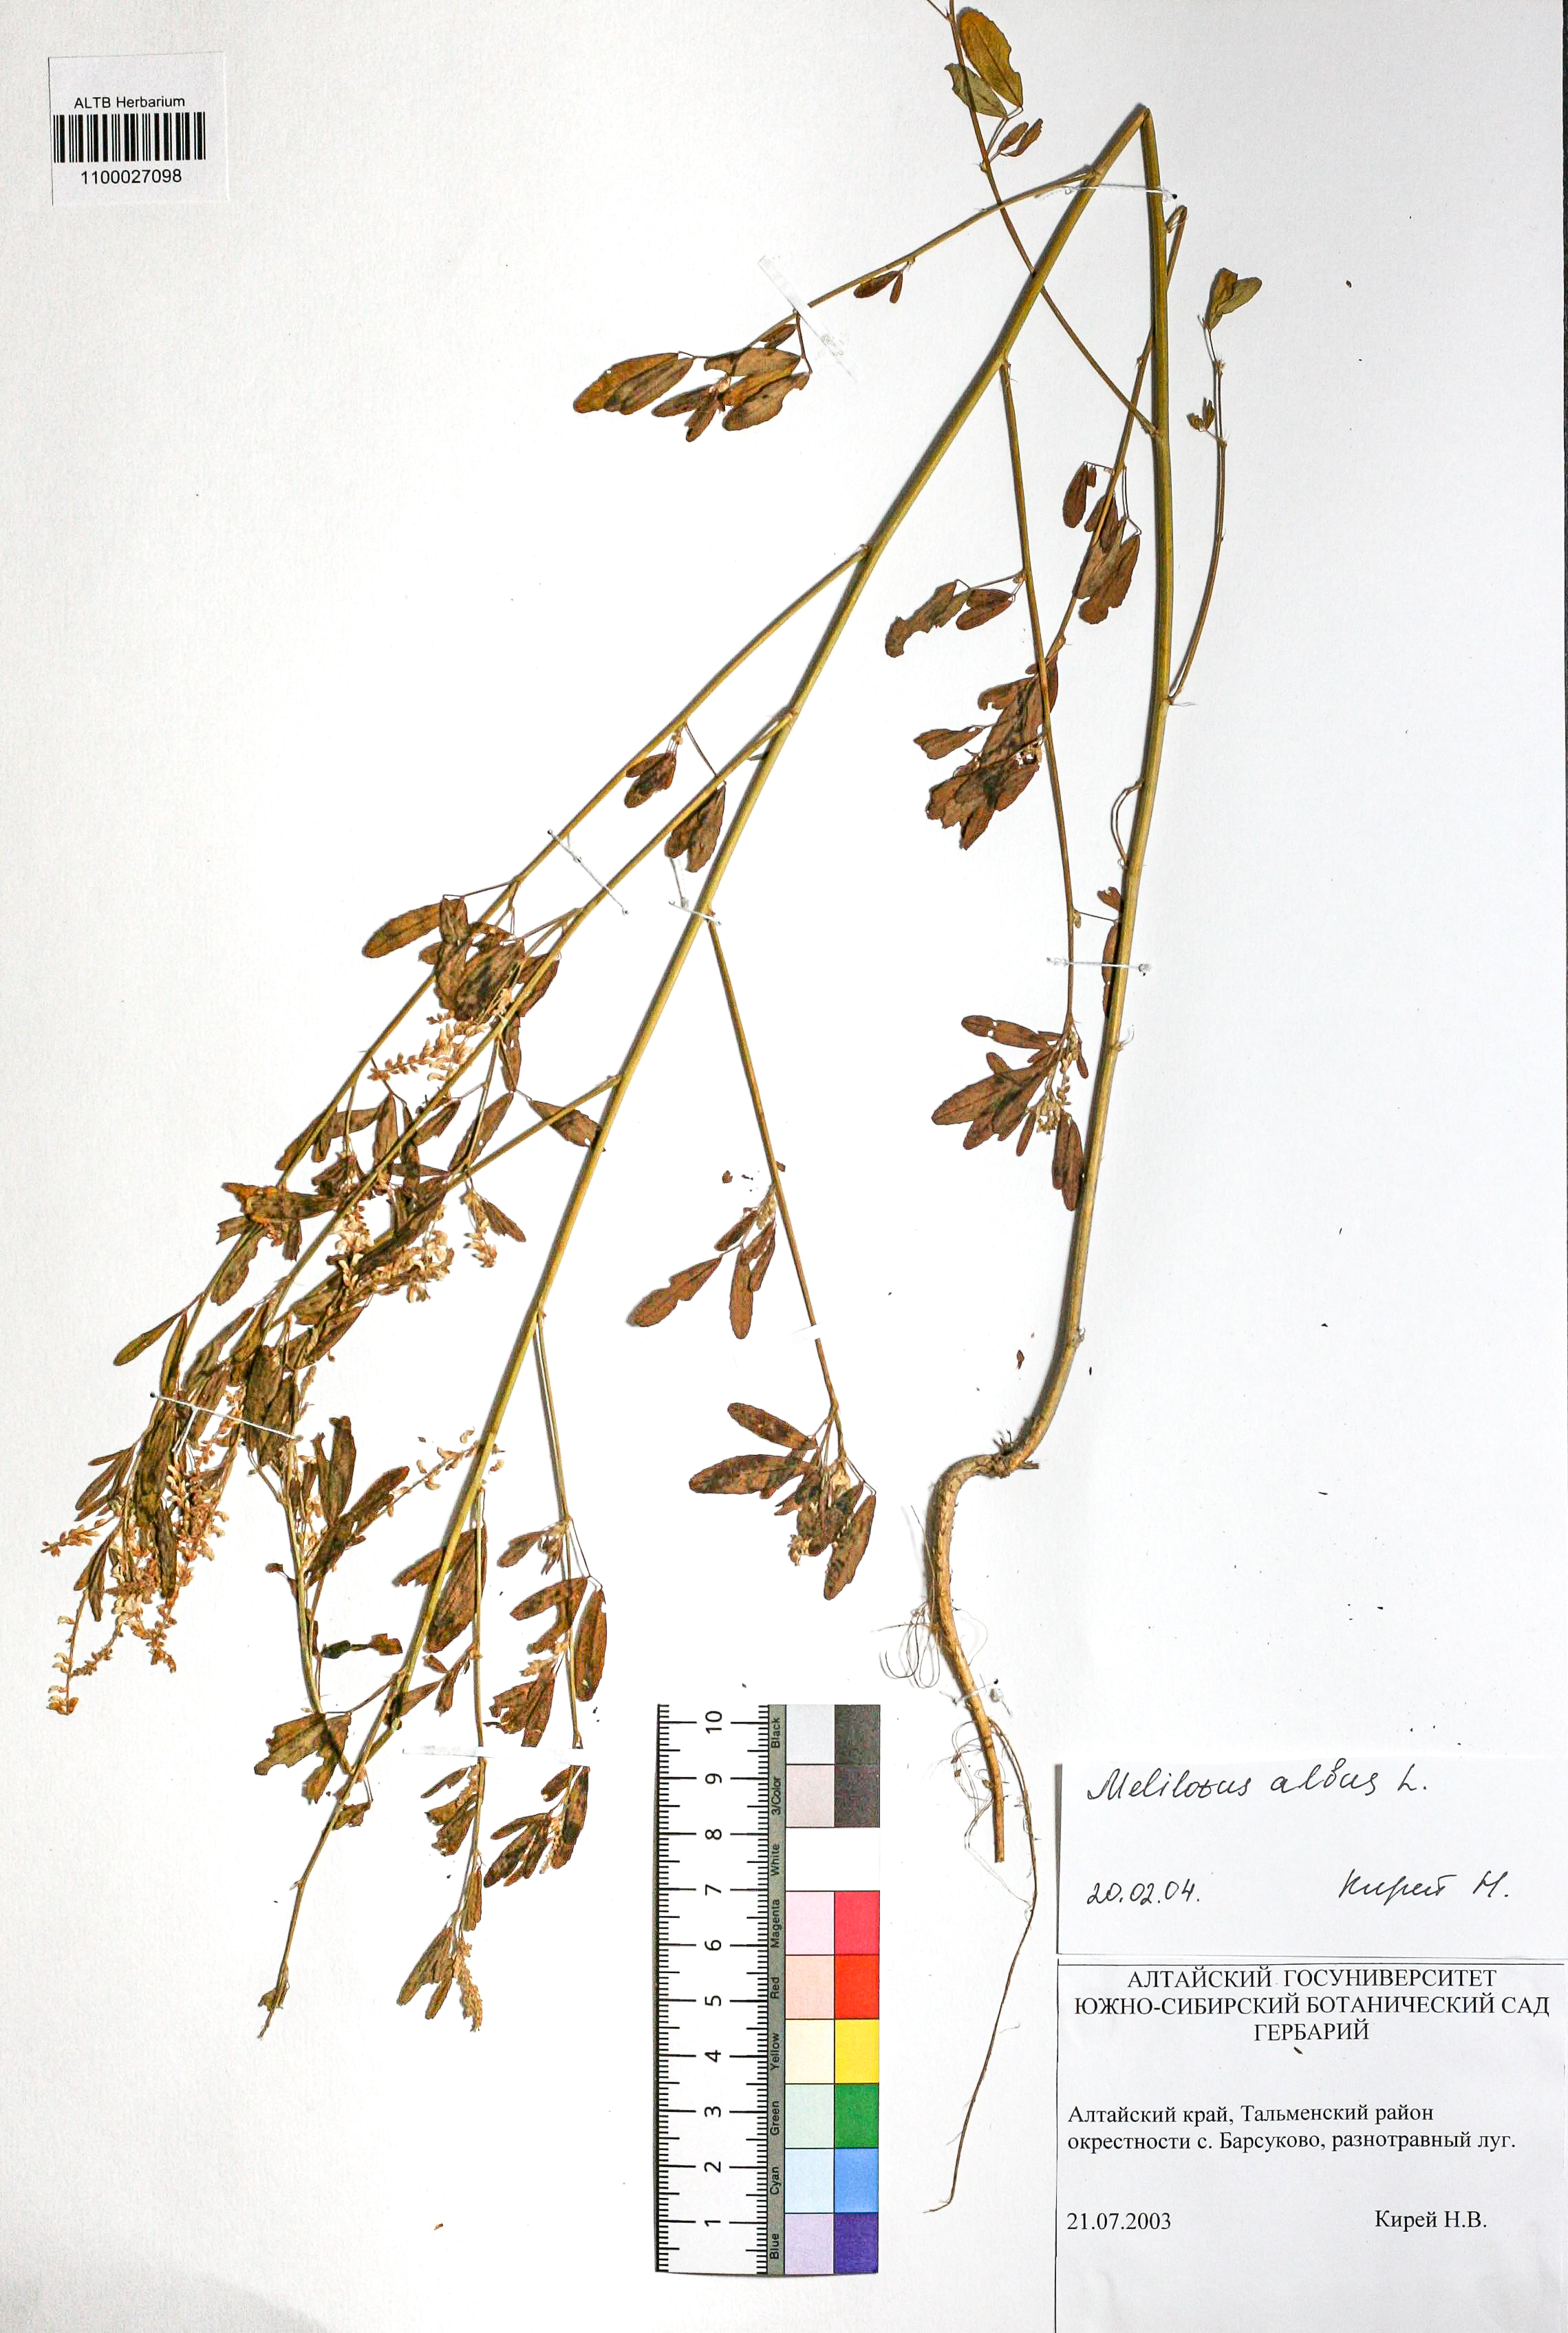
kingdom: Plantae
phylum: Tracheophyta
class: Magnoliopsida
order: Fabales
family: Fabaceae
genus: Melilotus
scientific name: Melilotus albus
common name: White melilot
